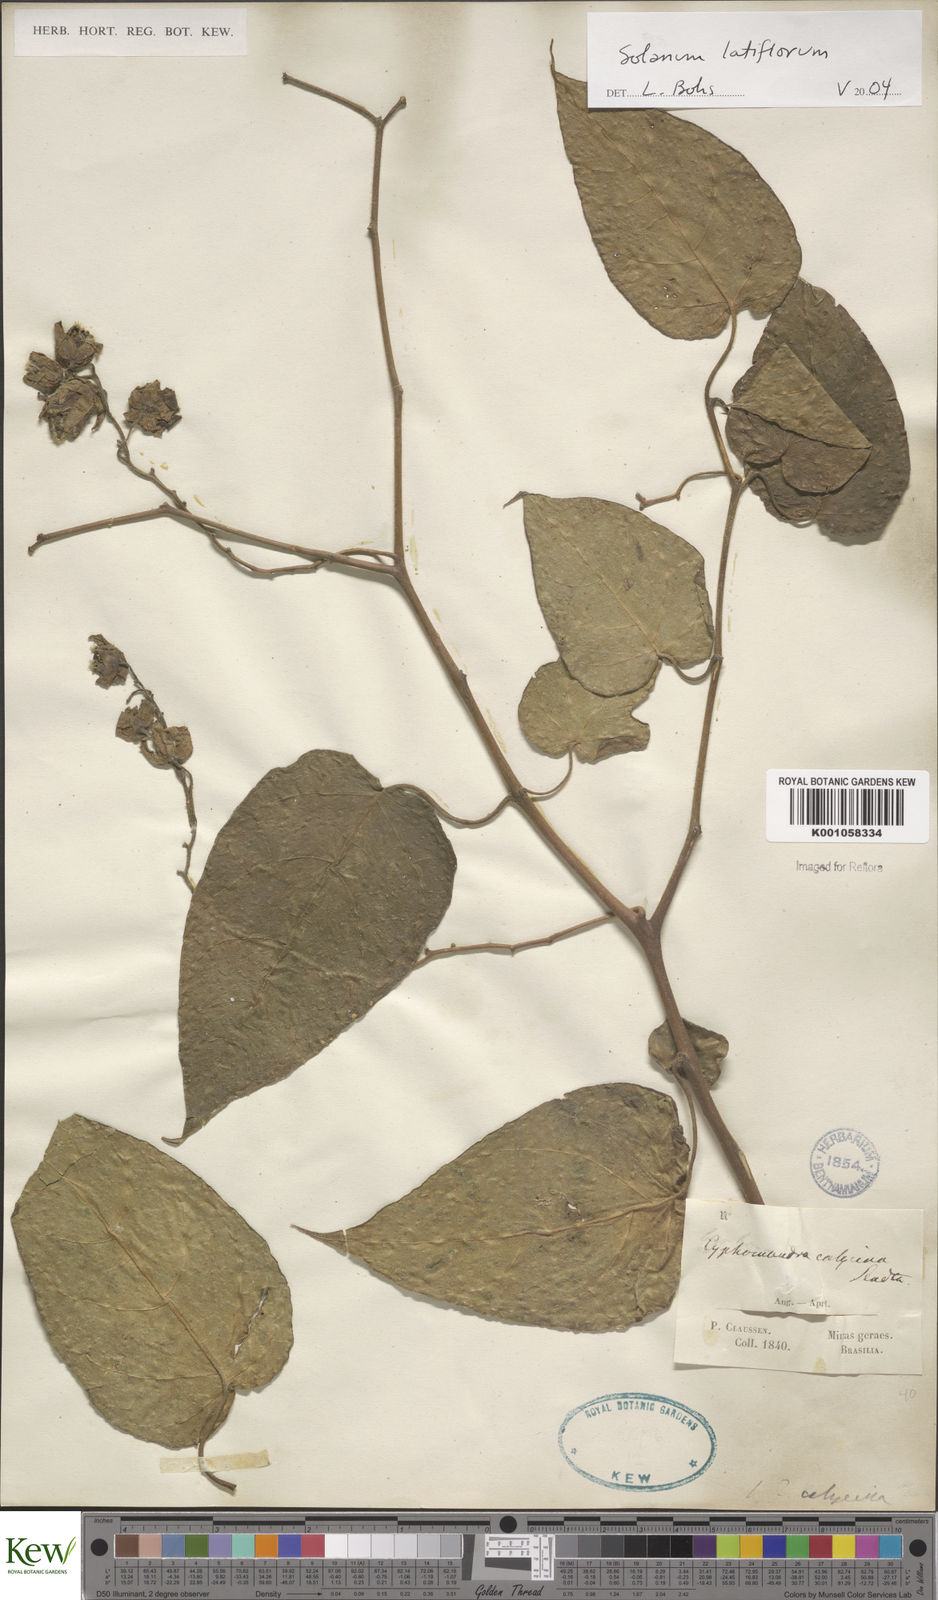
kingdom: Plantae
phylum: Tracheophyta
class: Magnoliopsida
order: Solanales
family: Solanaceae
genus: Solanum
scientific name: Solanum latiflorum
